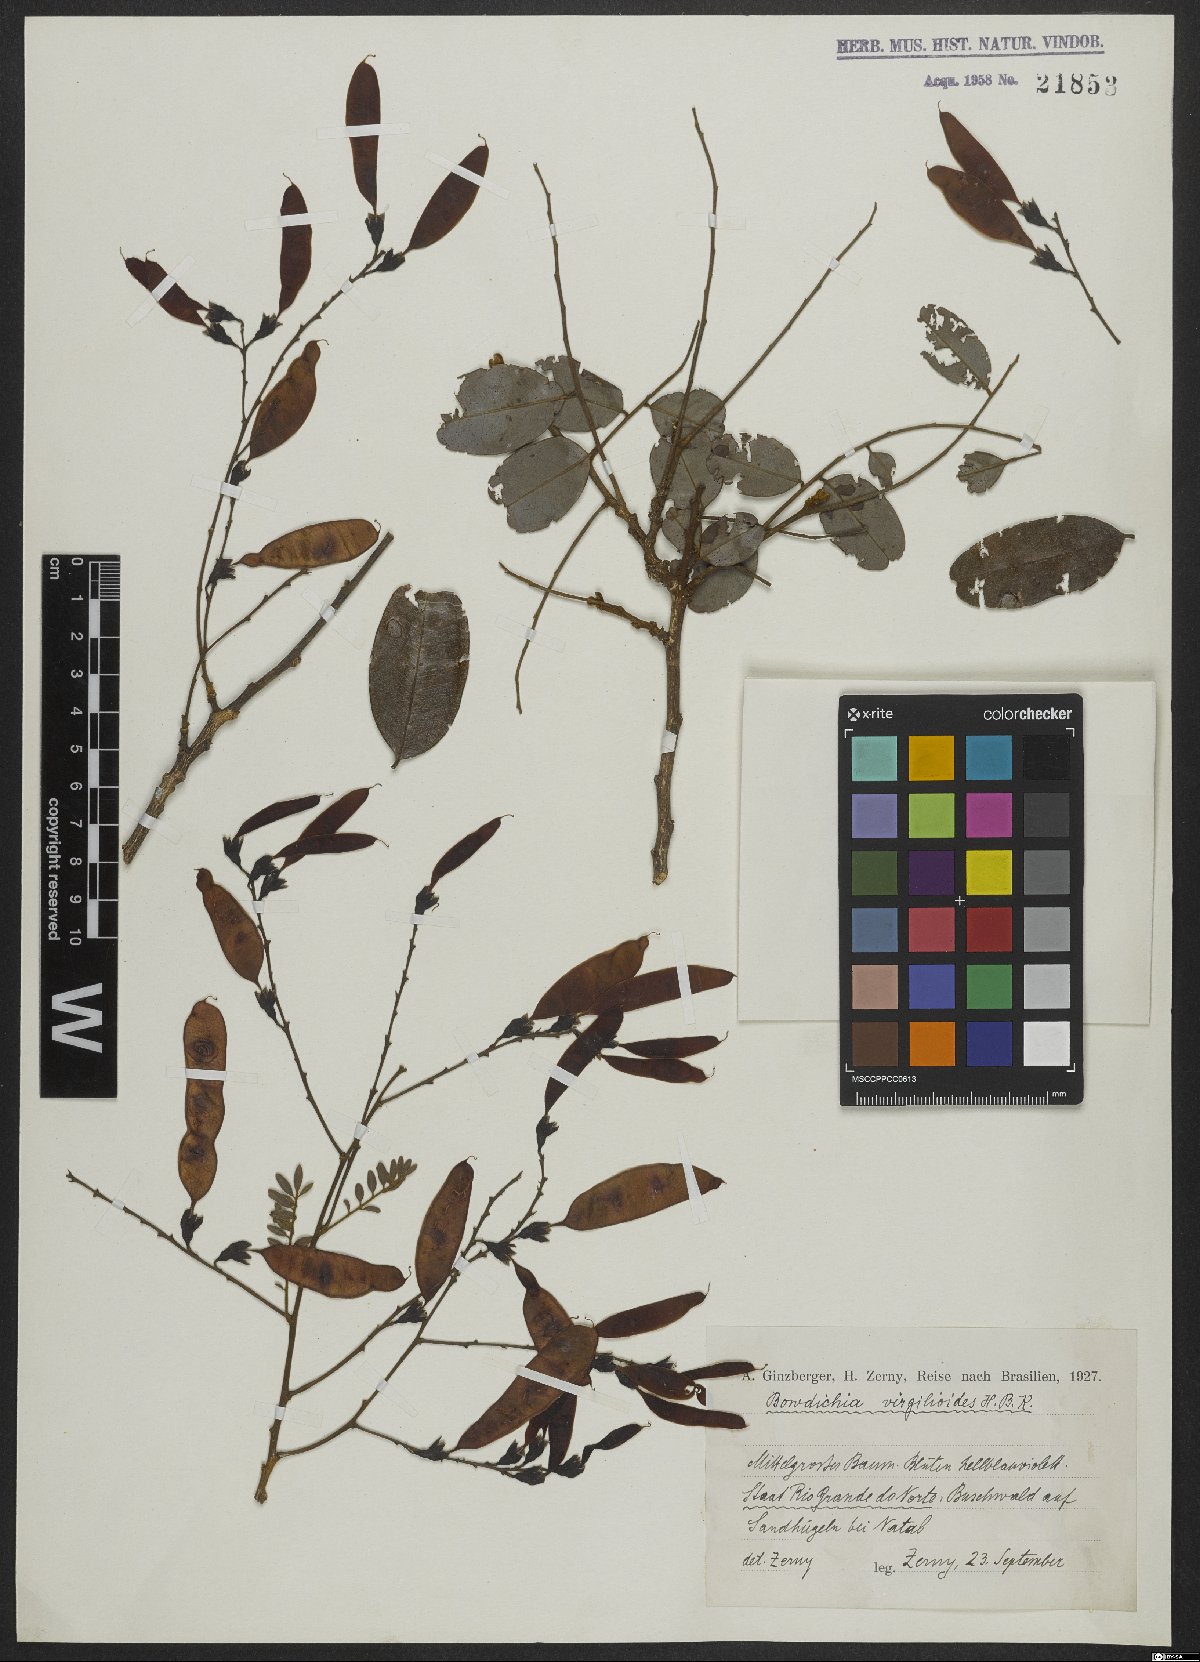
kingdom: Plantae
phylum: Tracheophyta
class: Magnoliopsida
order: Fabales
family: Fabaceae
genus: Bowdichia
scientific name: Bowdichia virgilioides
